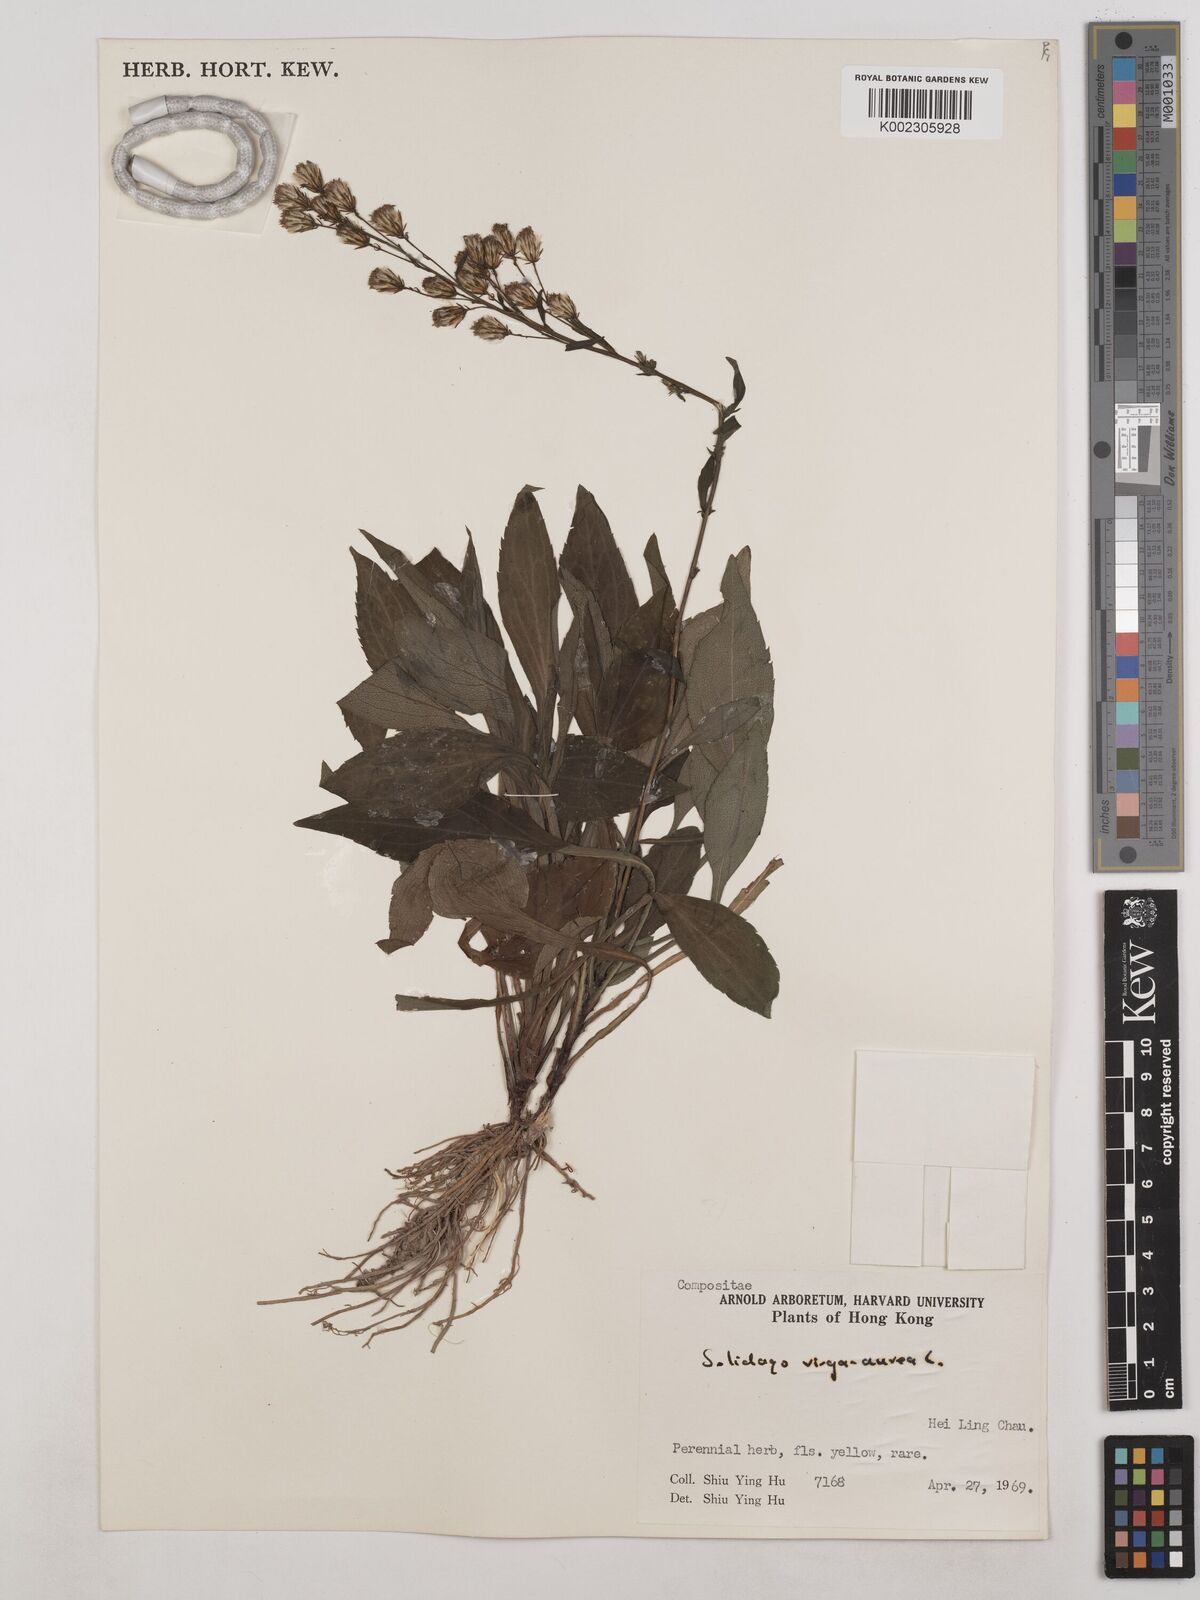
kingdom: Plantae
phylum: Tracheophyta
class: Magnoliopsida
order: Asterales
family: Asteraceae
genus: Solidago
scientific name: Solidago virgaurea
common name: Goldenrod
